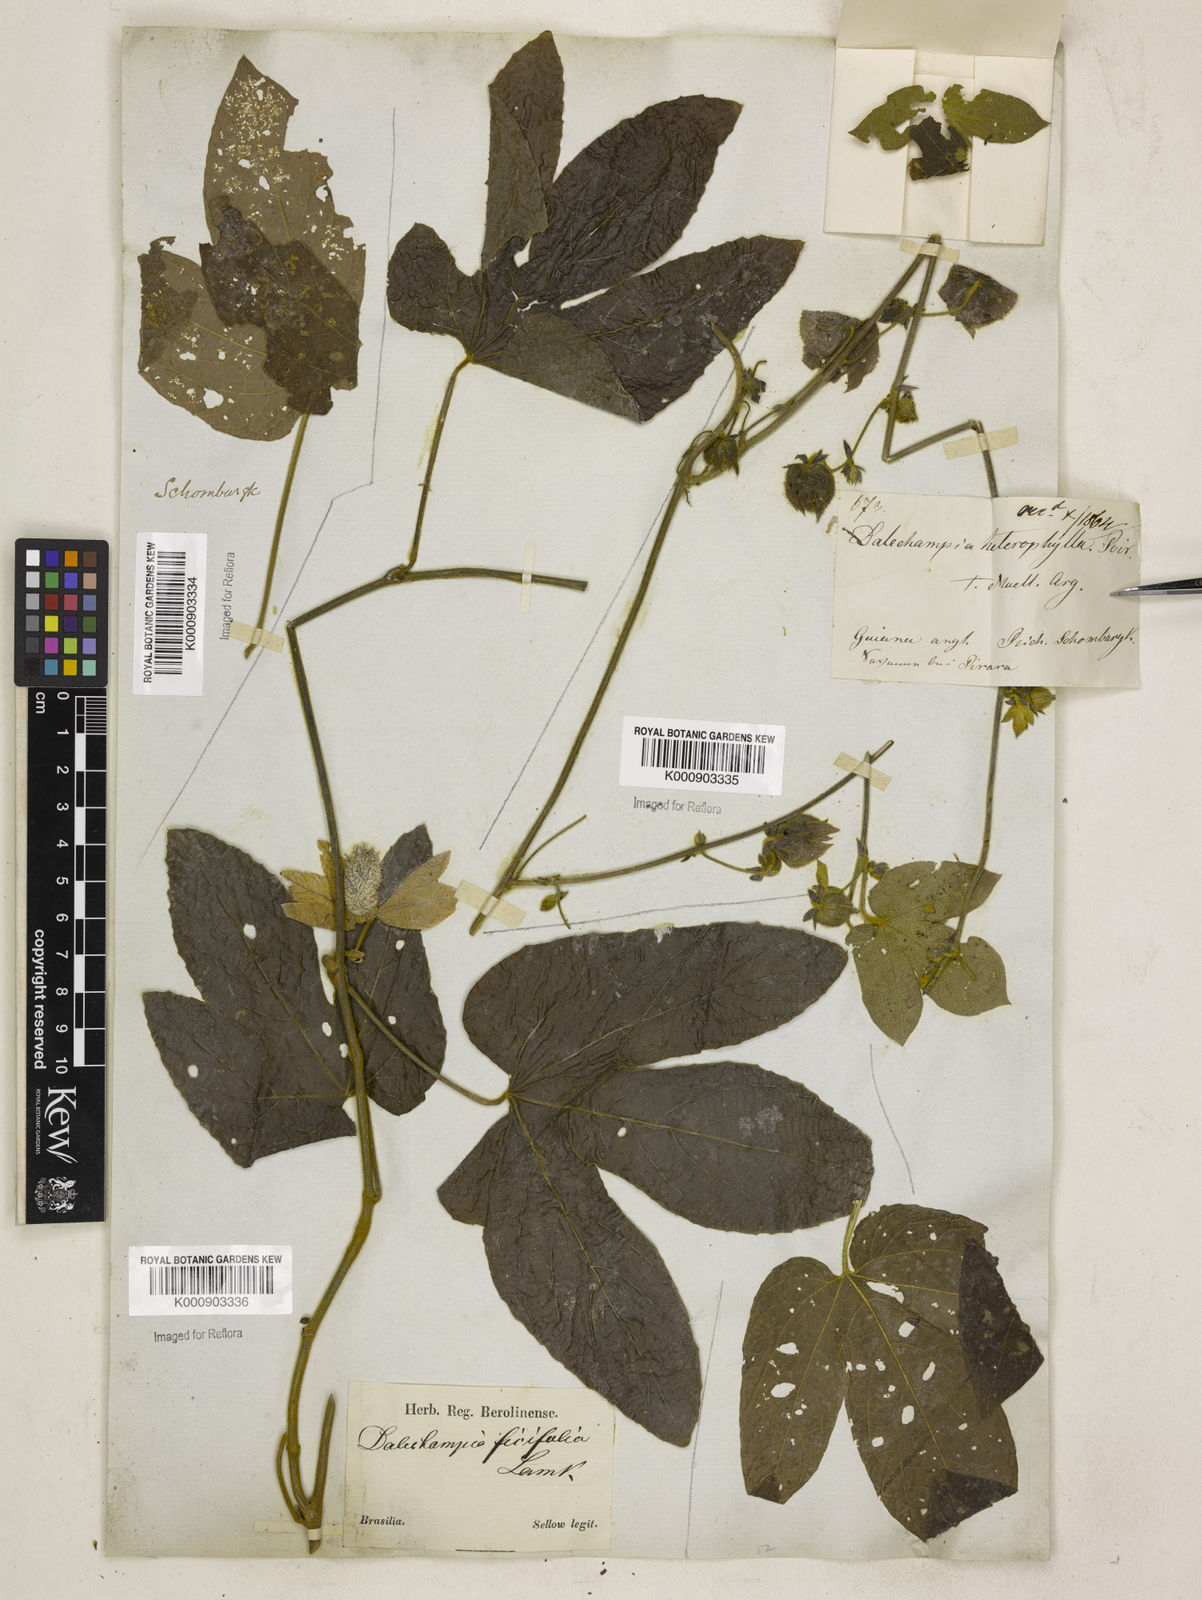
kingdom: Plantae
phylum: Tracheophyta
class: Magnoliopsida
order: Malpighiales
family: Euphorbiaceae
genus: Dalechampia
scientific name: Dalechampia tiliifolia
